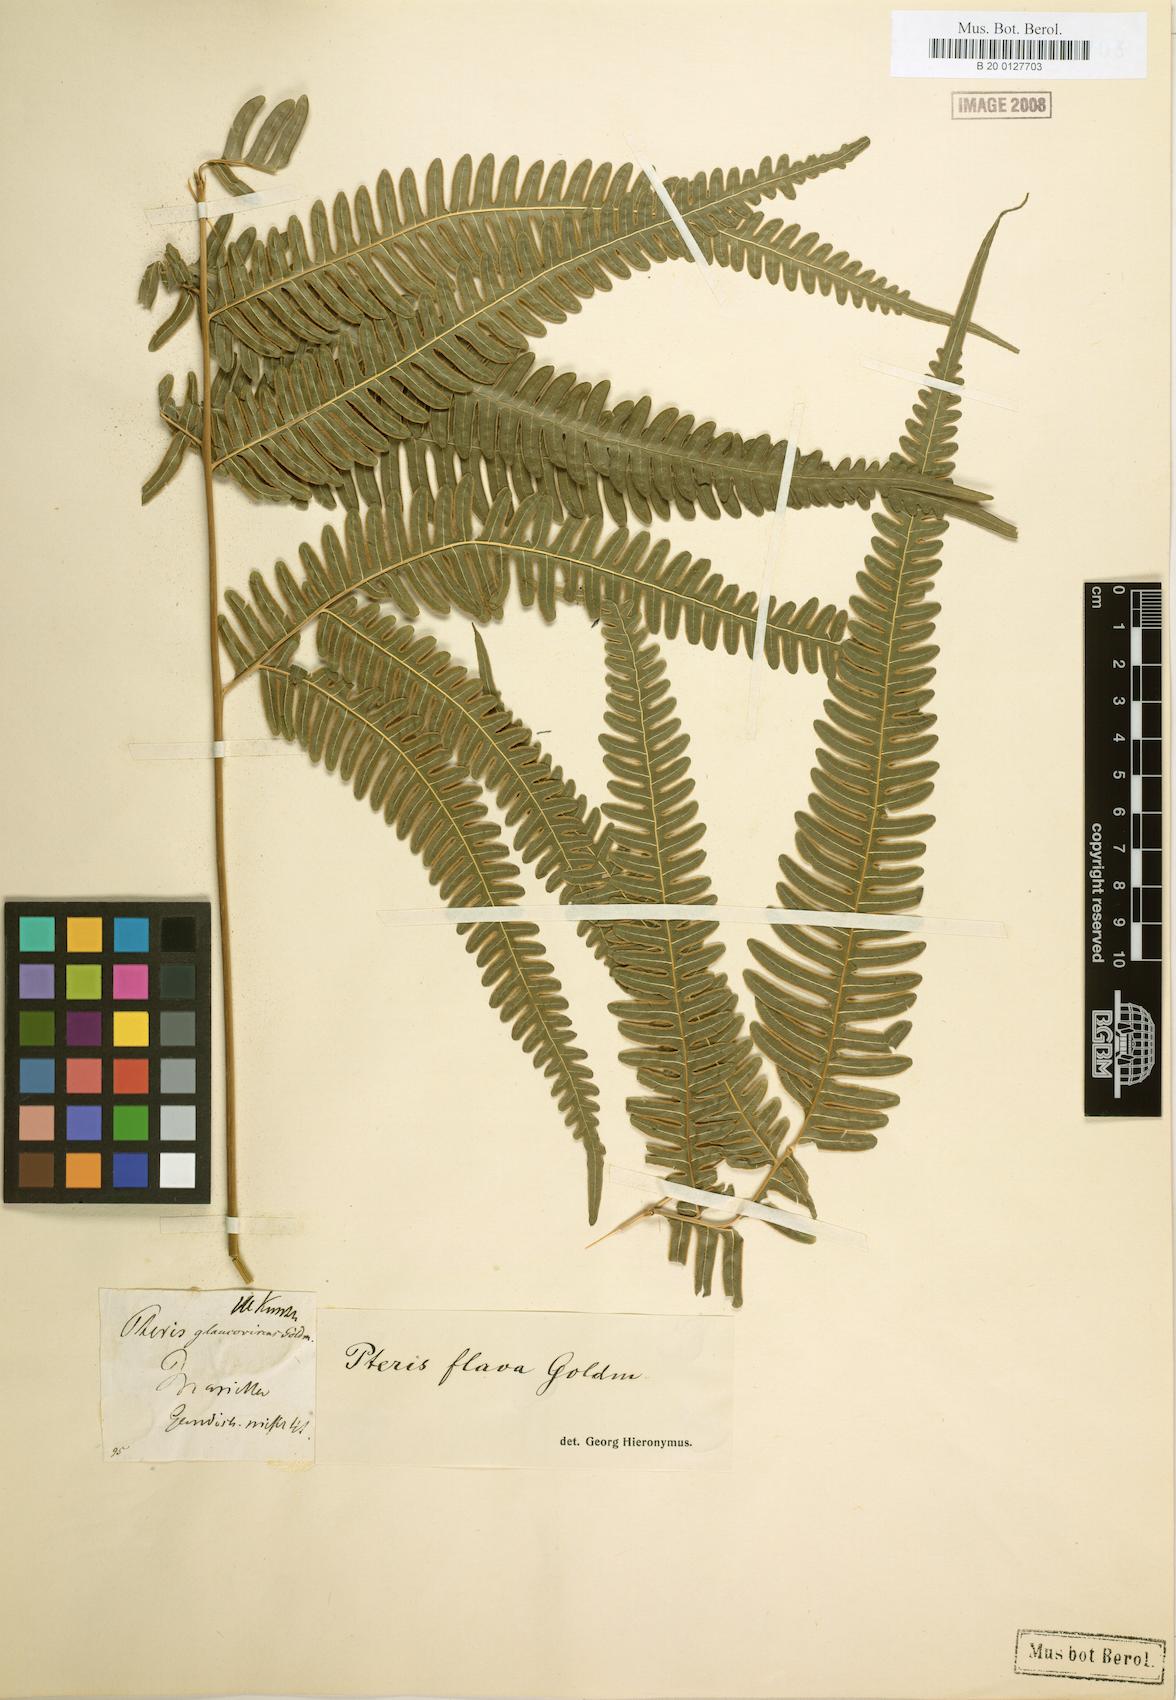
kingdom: Plantae
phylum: Tracheophyta
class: Polypodiopsida
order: Polypodiales
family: Pteridaceae
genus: Pteris
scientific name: Pteris glaucovirens
